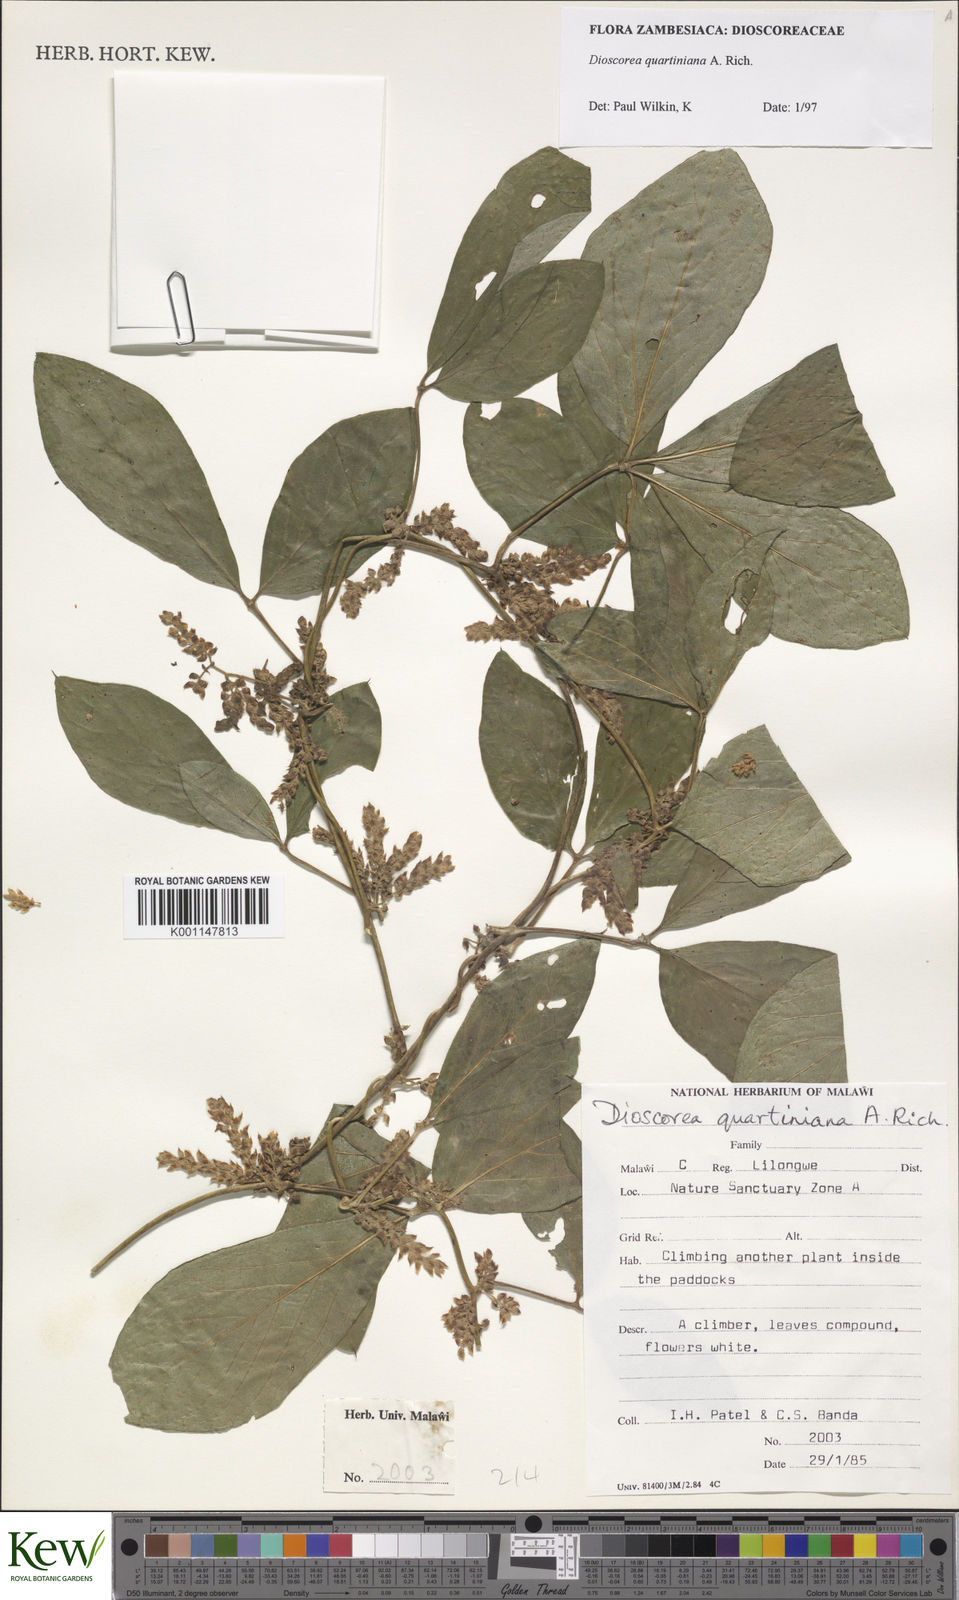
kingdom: Plantae
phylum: Tracheophyta
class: Liliopsida
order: Dioscoreales
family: Dioscoreaceae
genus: Dioscorea
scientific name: Dioscorea quartiniana
